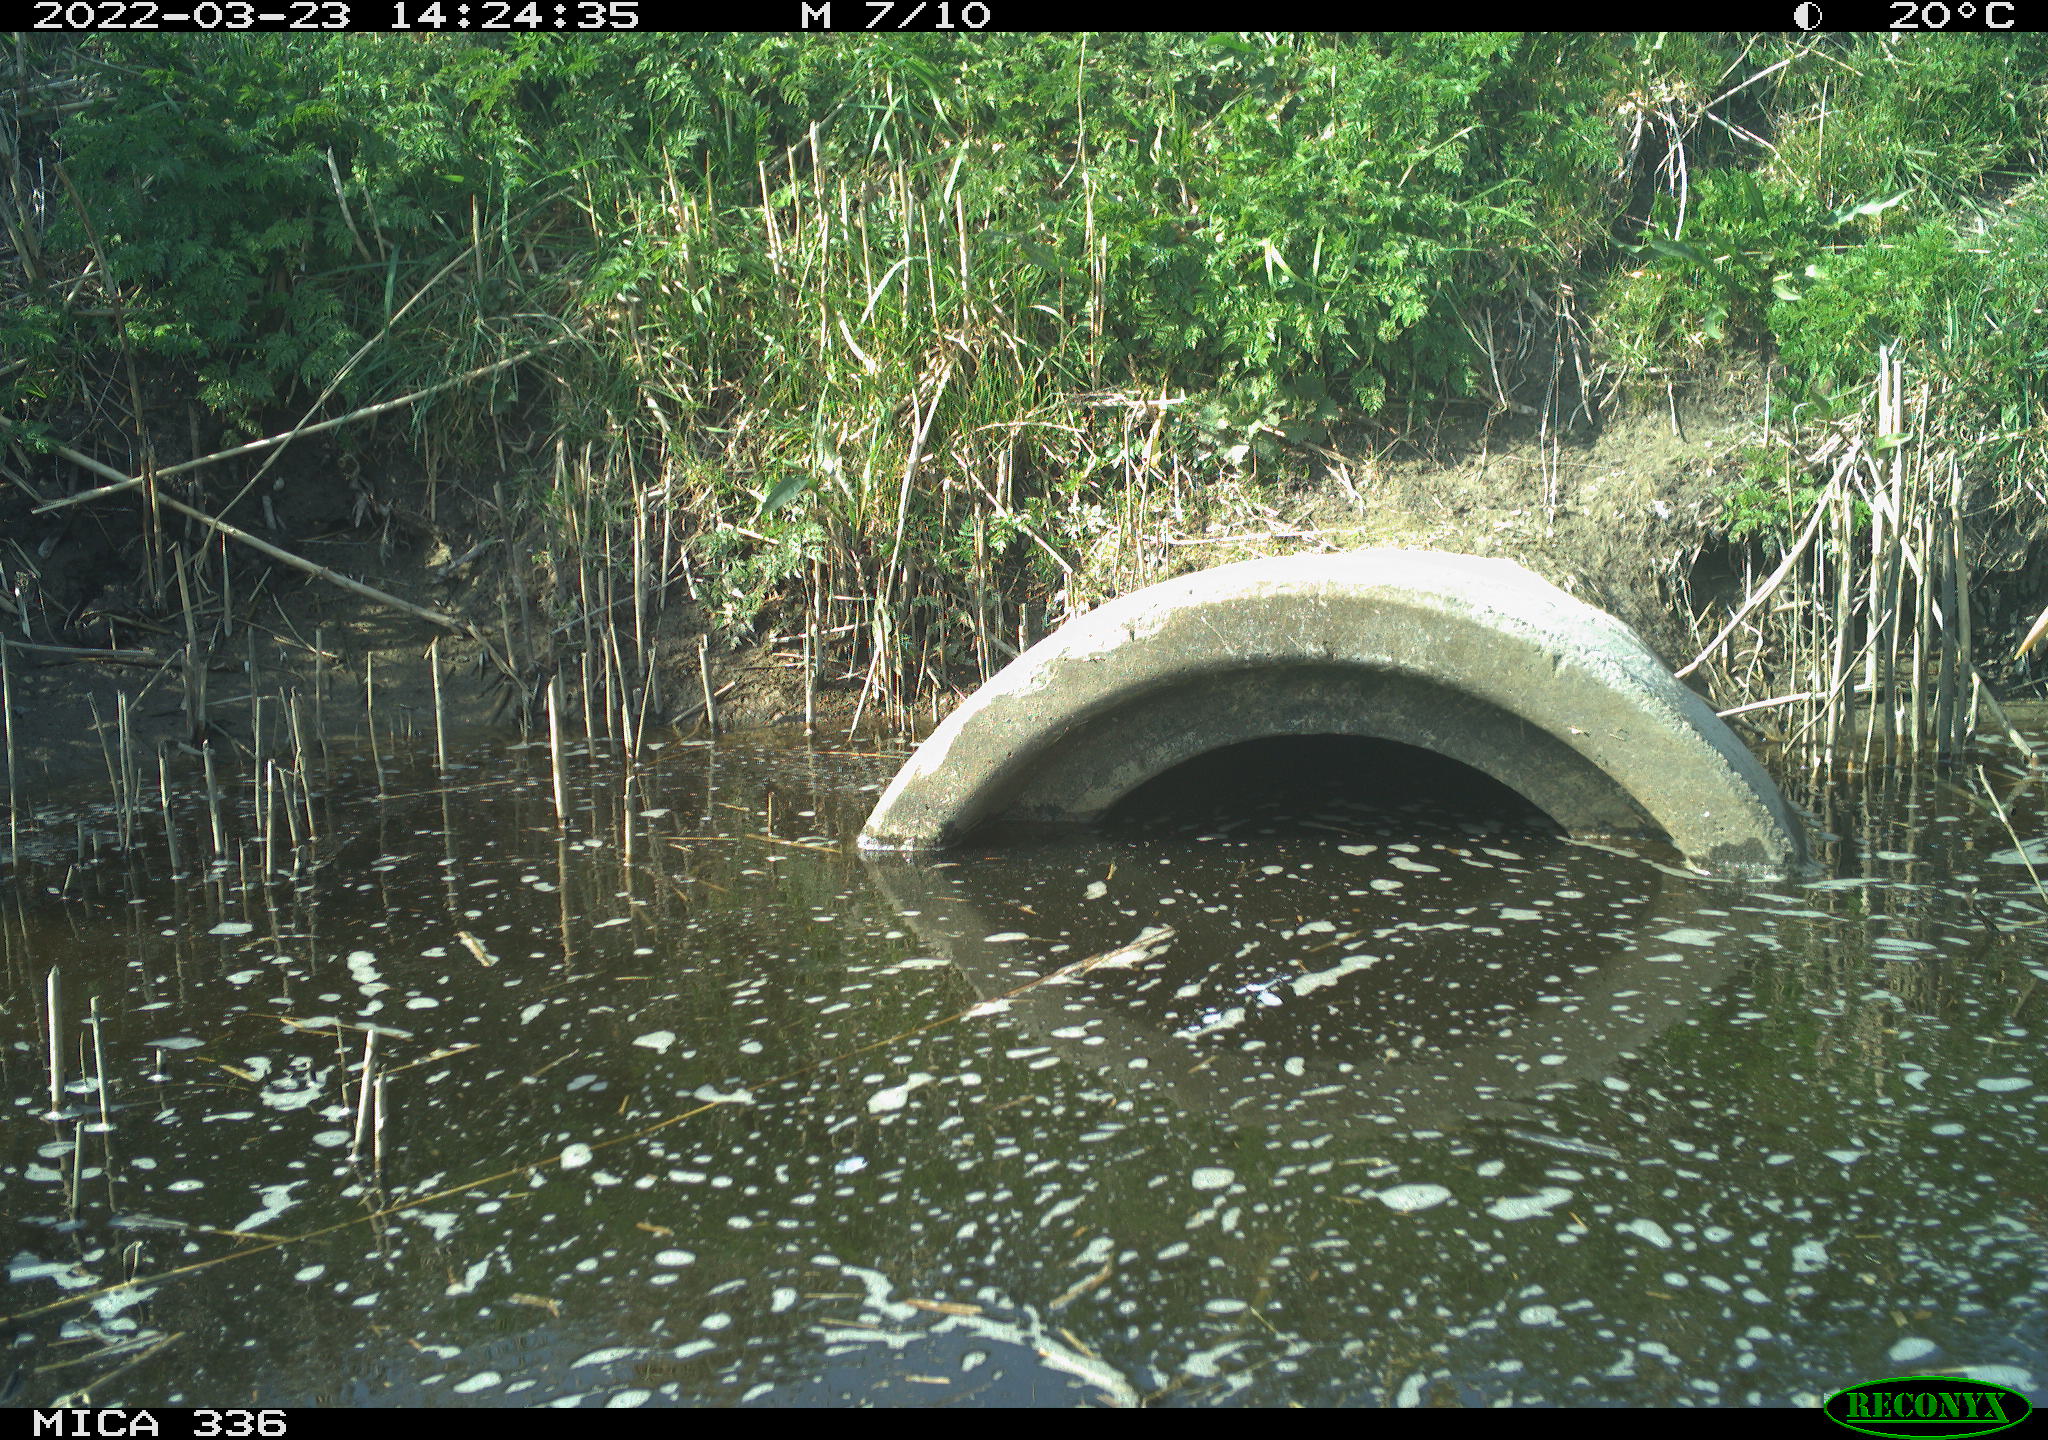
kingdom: Animalia
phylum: Chordata
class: Aves
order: Pelecaniformes
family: Ardeidae
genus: Ardea
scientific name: Ardea cinerea
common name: Grey heron
